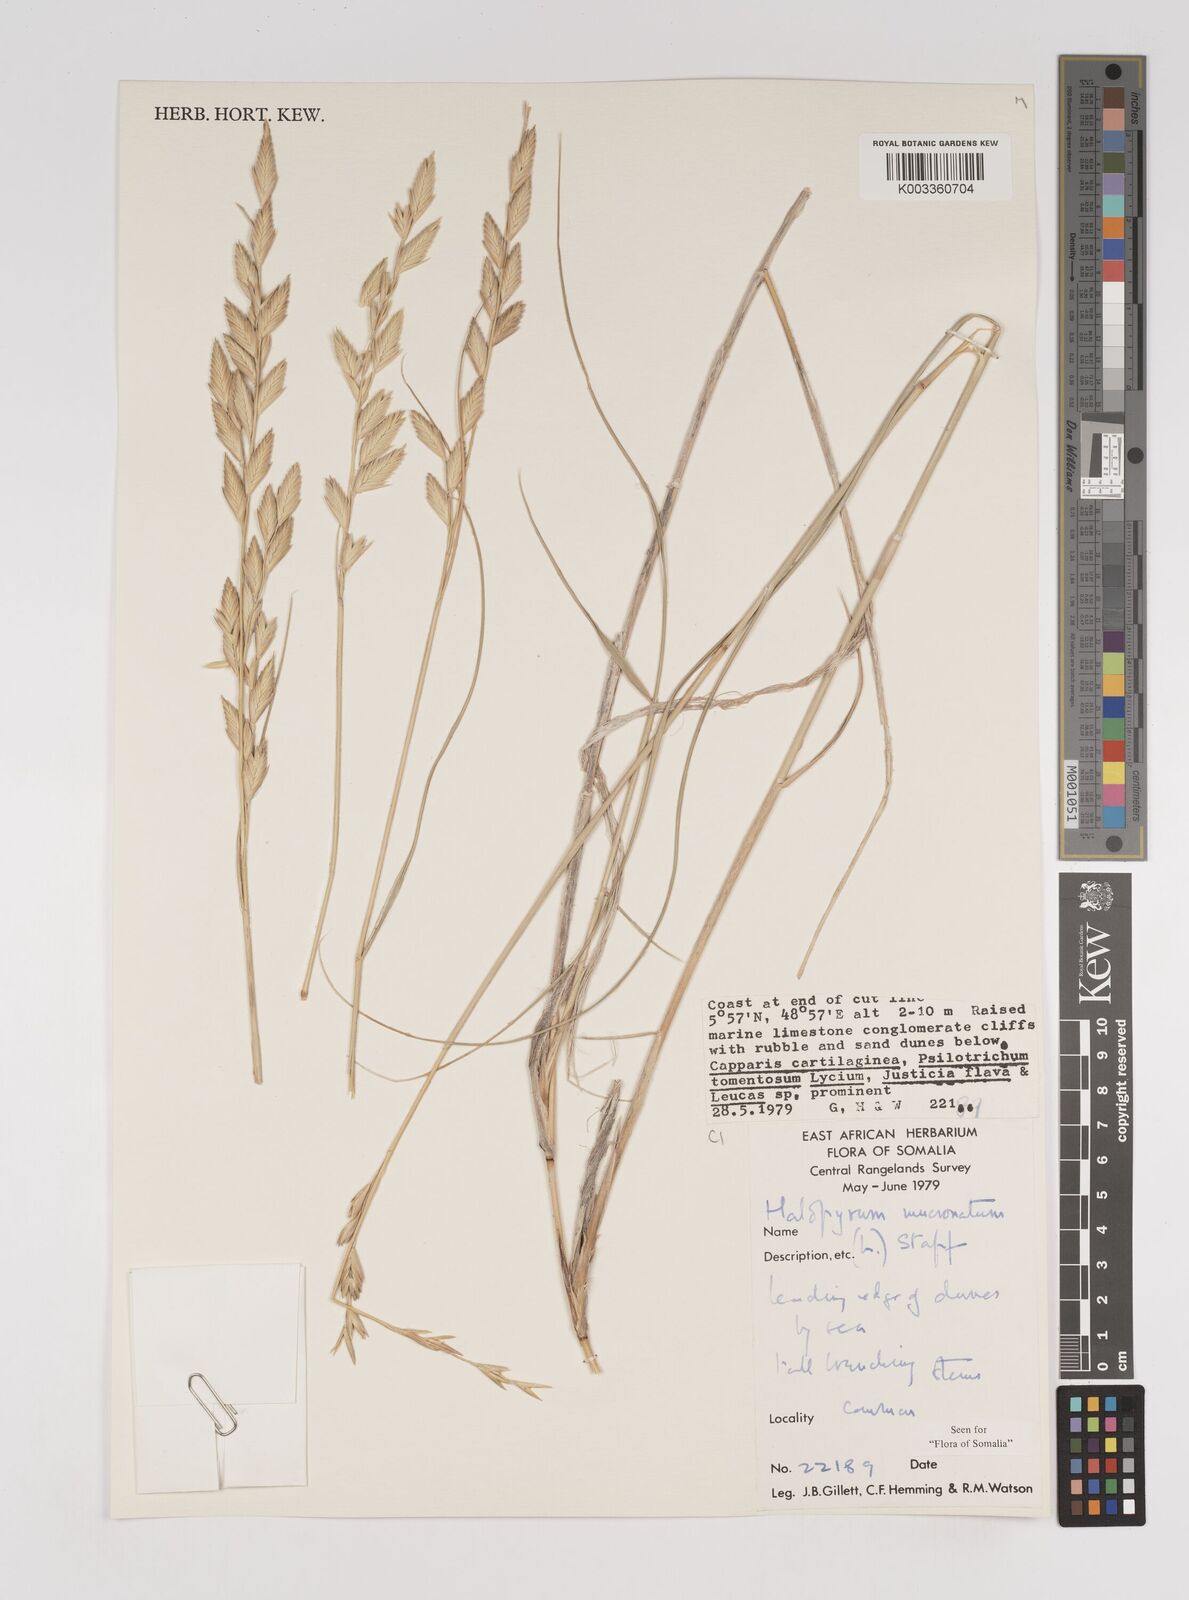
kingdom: Plantae
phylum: Tracheophyta
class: Liliopsida
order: Poales
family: Poaceae
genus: Halopyrum
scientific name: Halopyrum mucronatum
